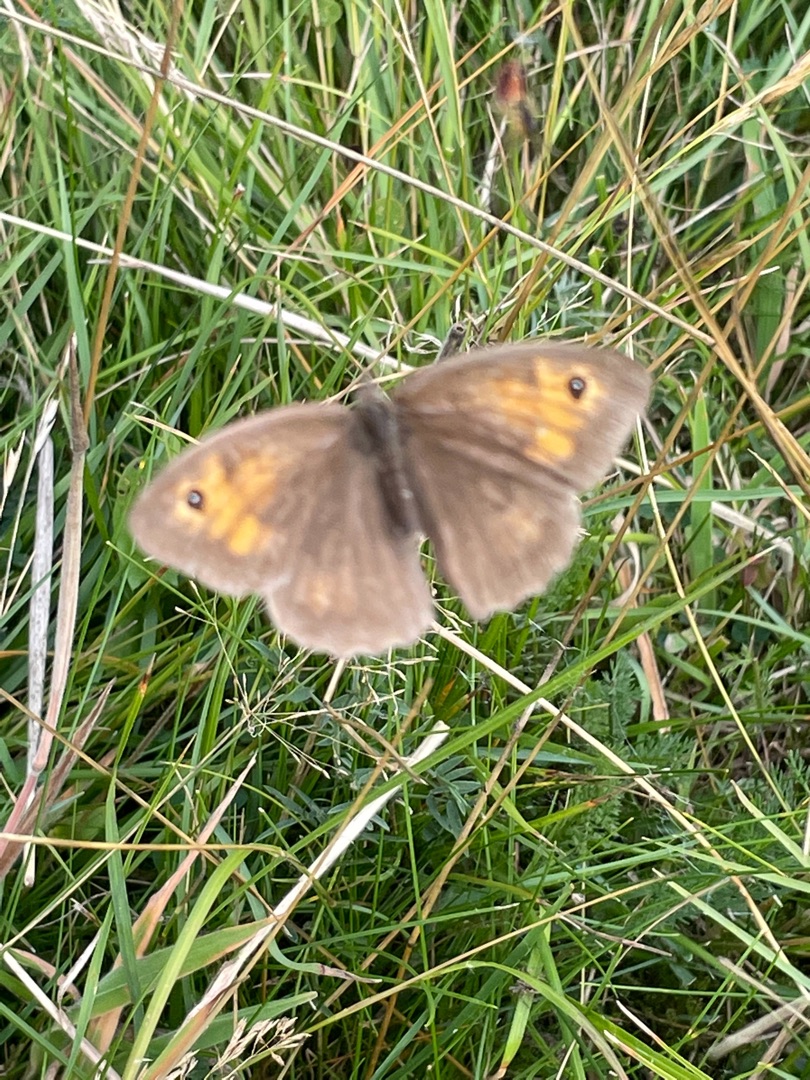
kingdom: Animalia
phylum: Arthropoda
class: Insecta
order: Lepidoptera
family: Nymphalidae
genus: Maniola
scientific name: Maniola jurtina
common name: Græsrandøje
